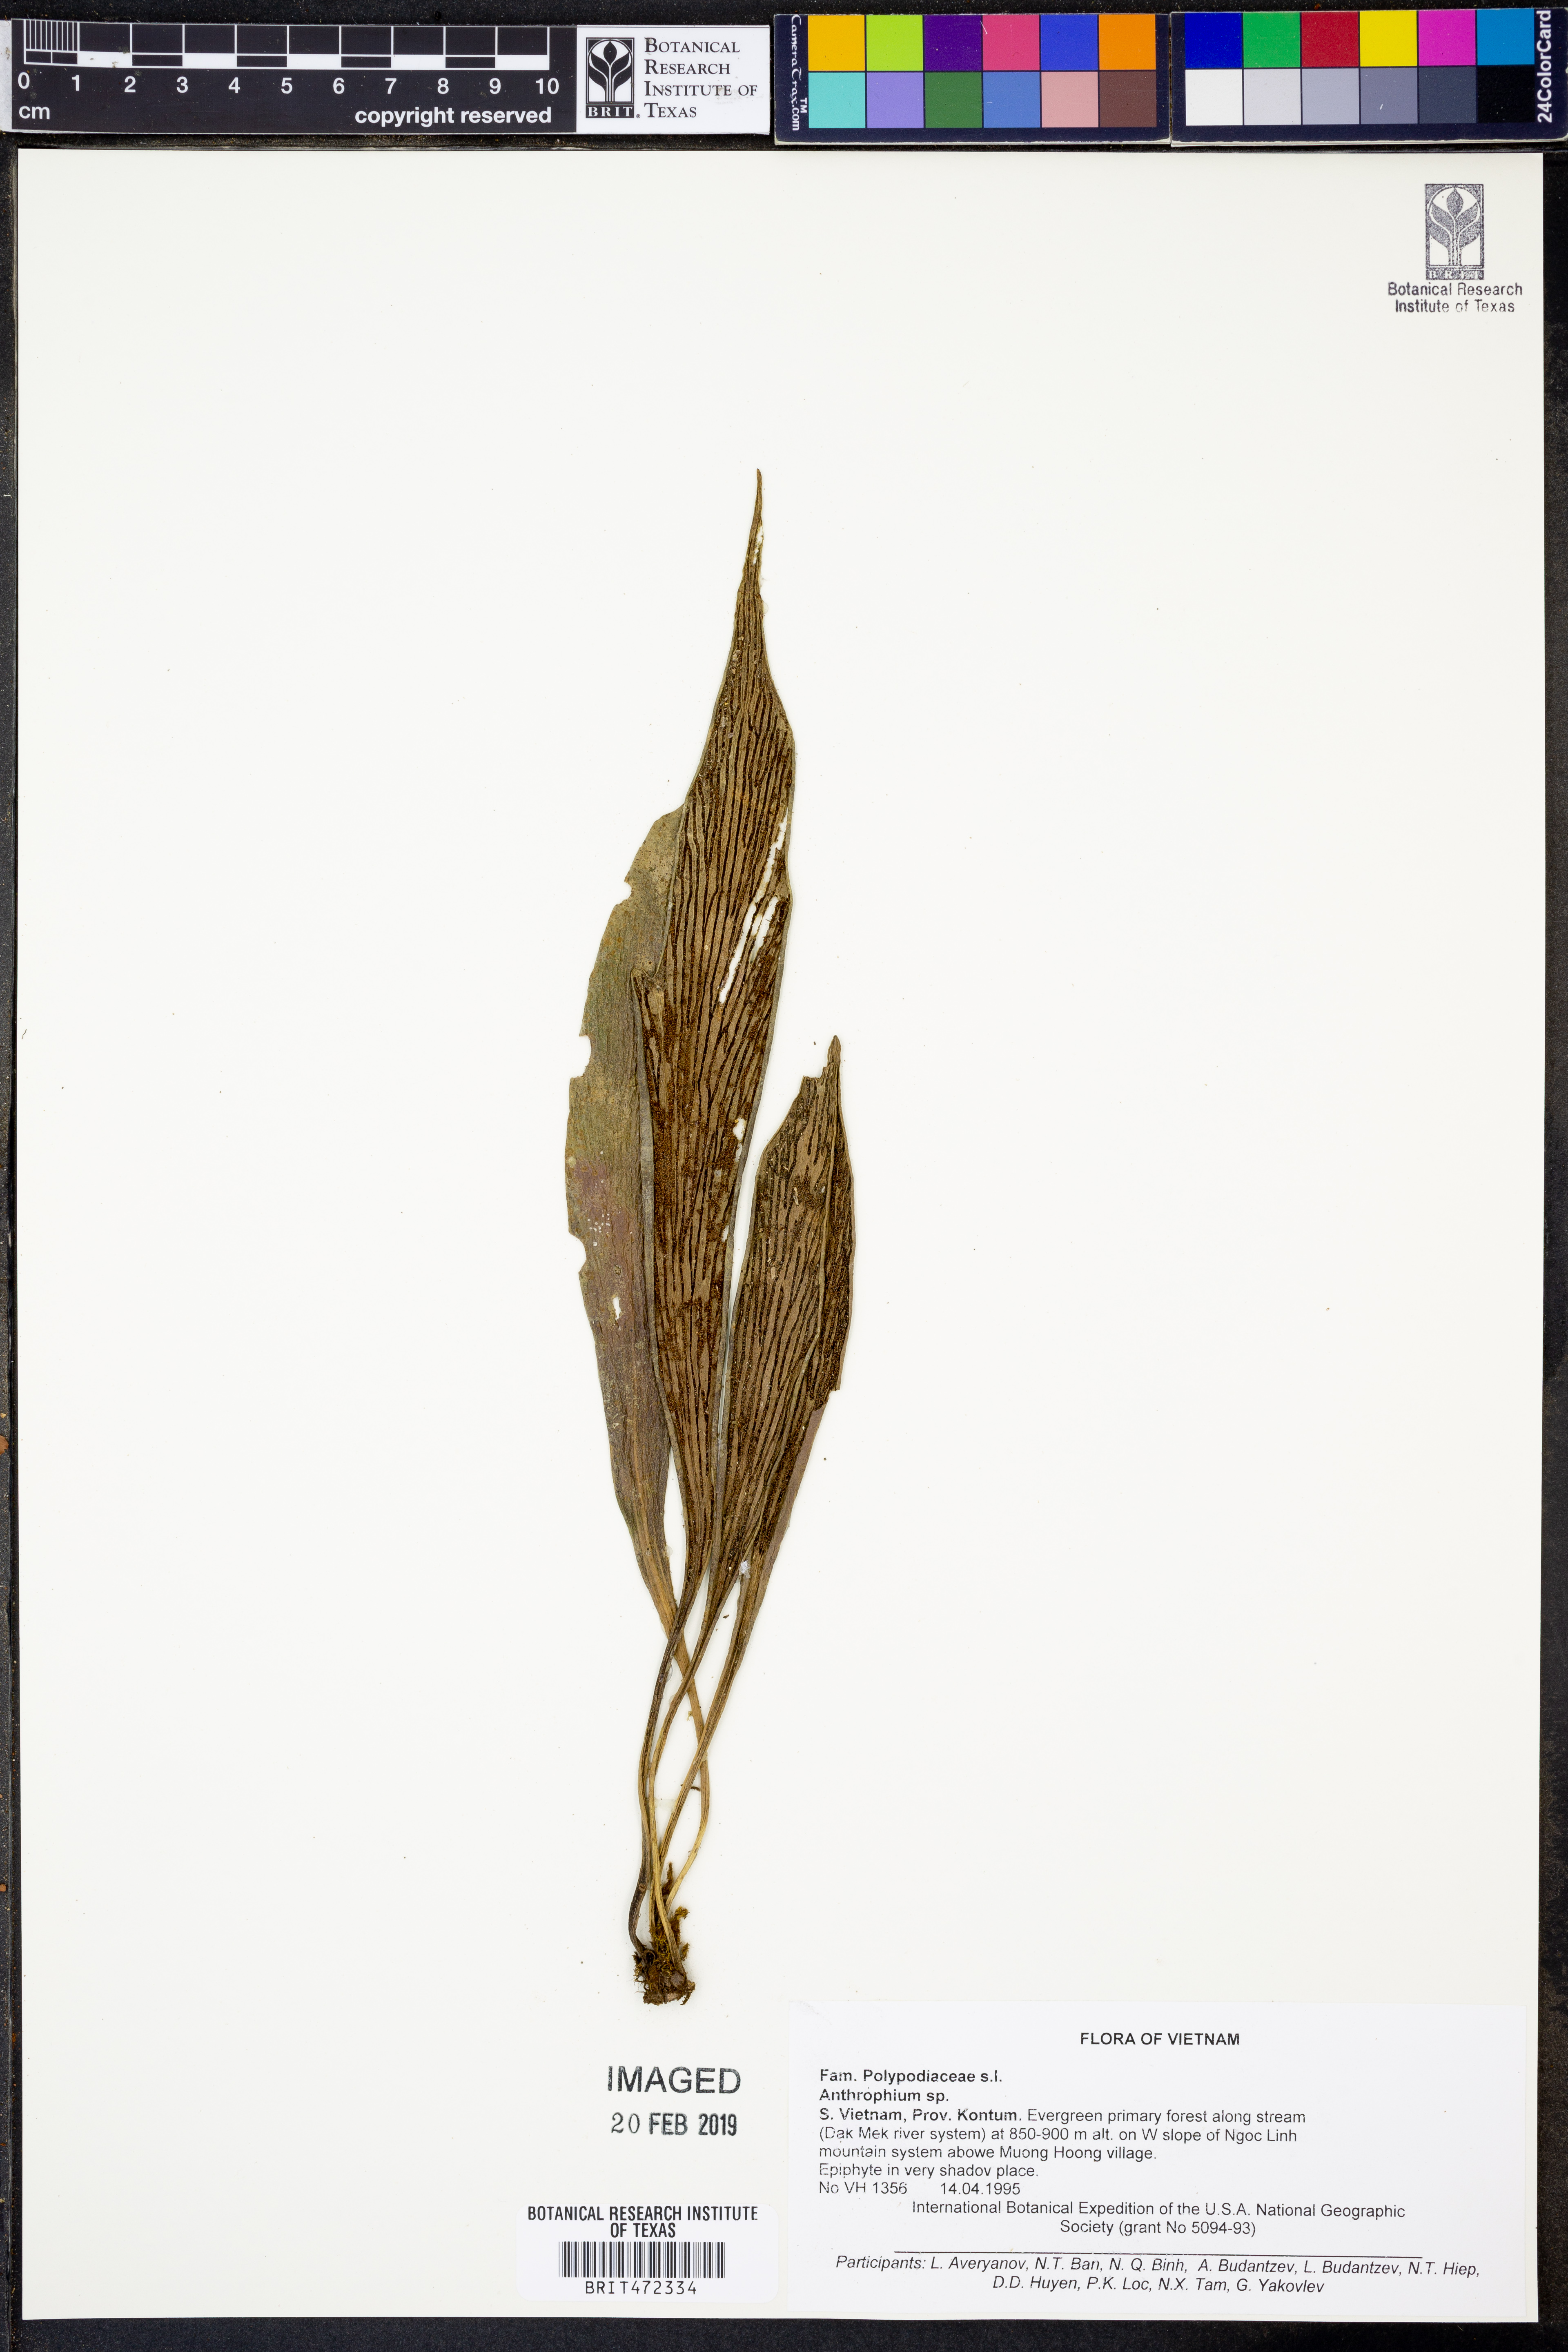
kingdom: Plantae
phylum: Tracheophyta
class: Polypodiopsida
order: Polypodiales
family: Polypodiaceae
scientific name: Polypodiaceae
